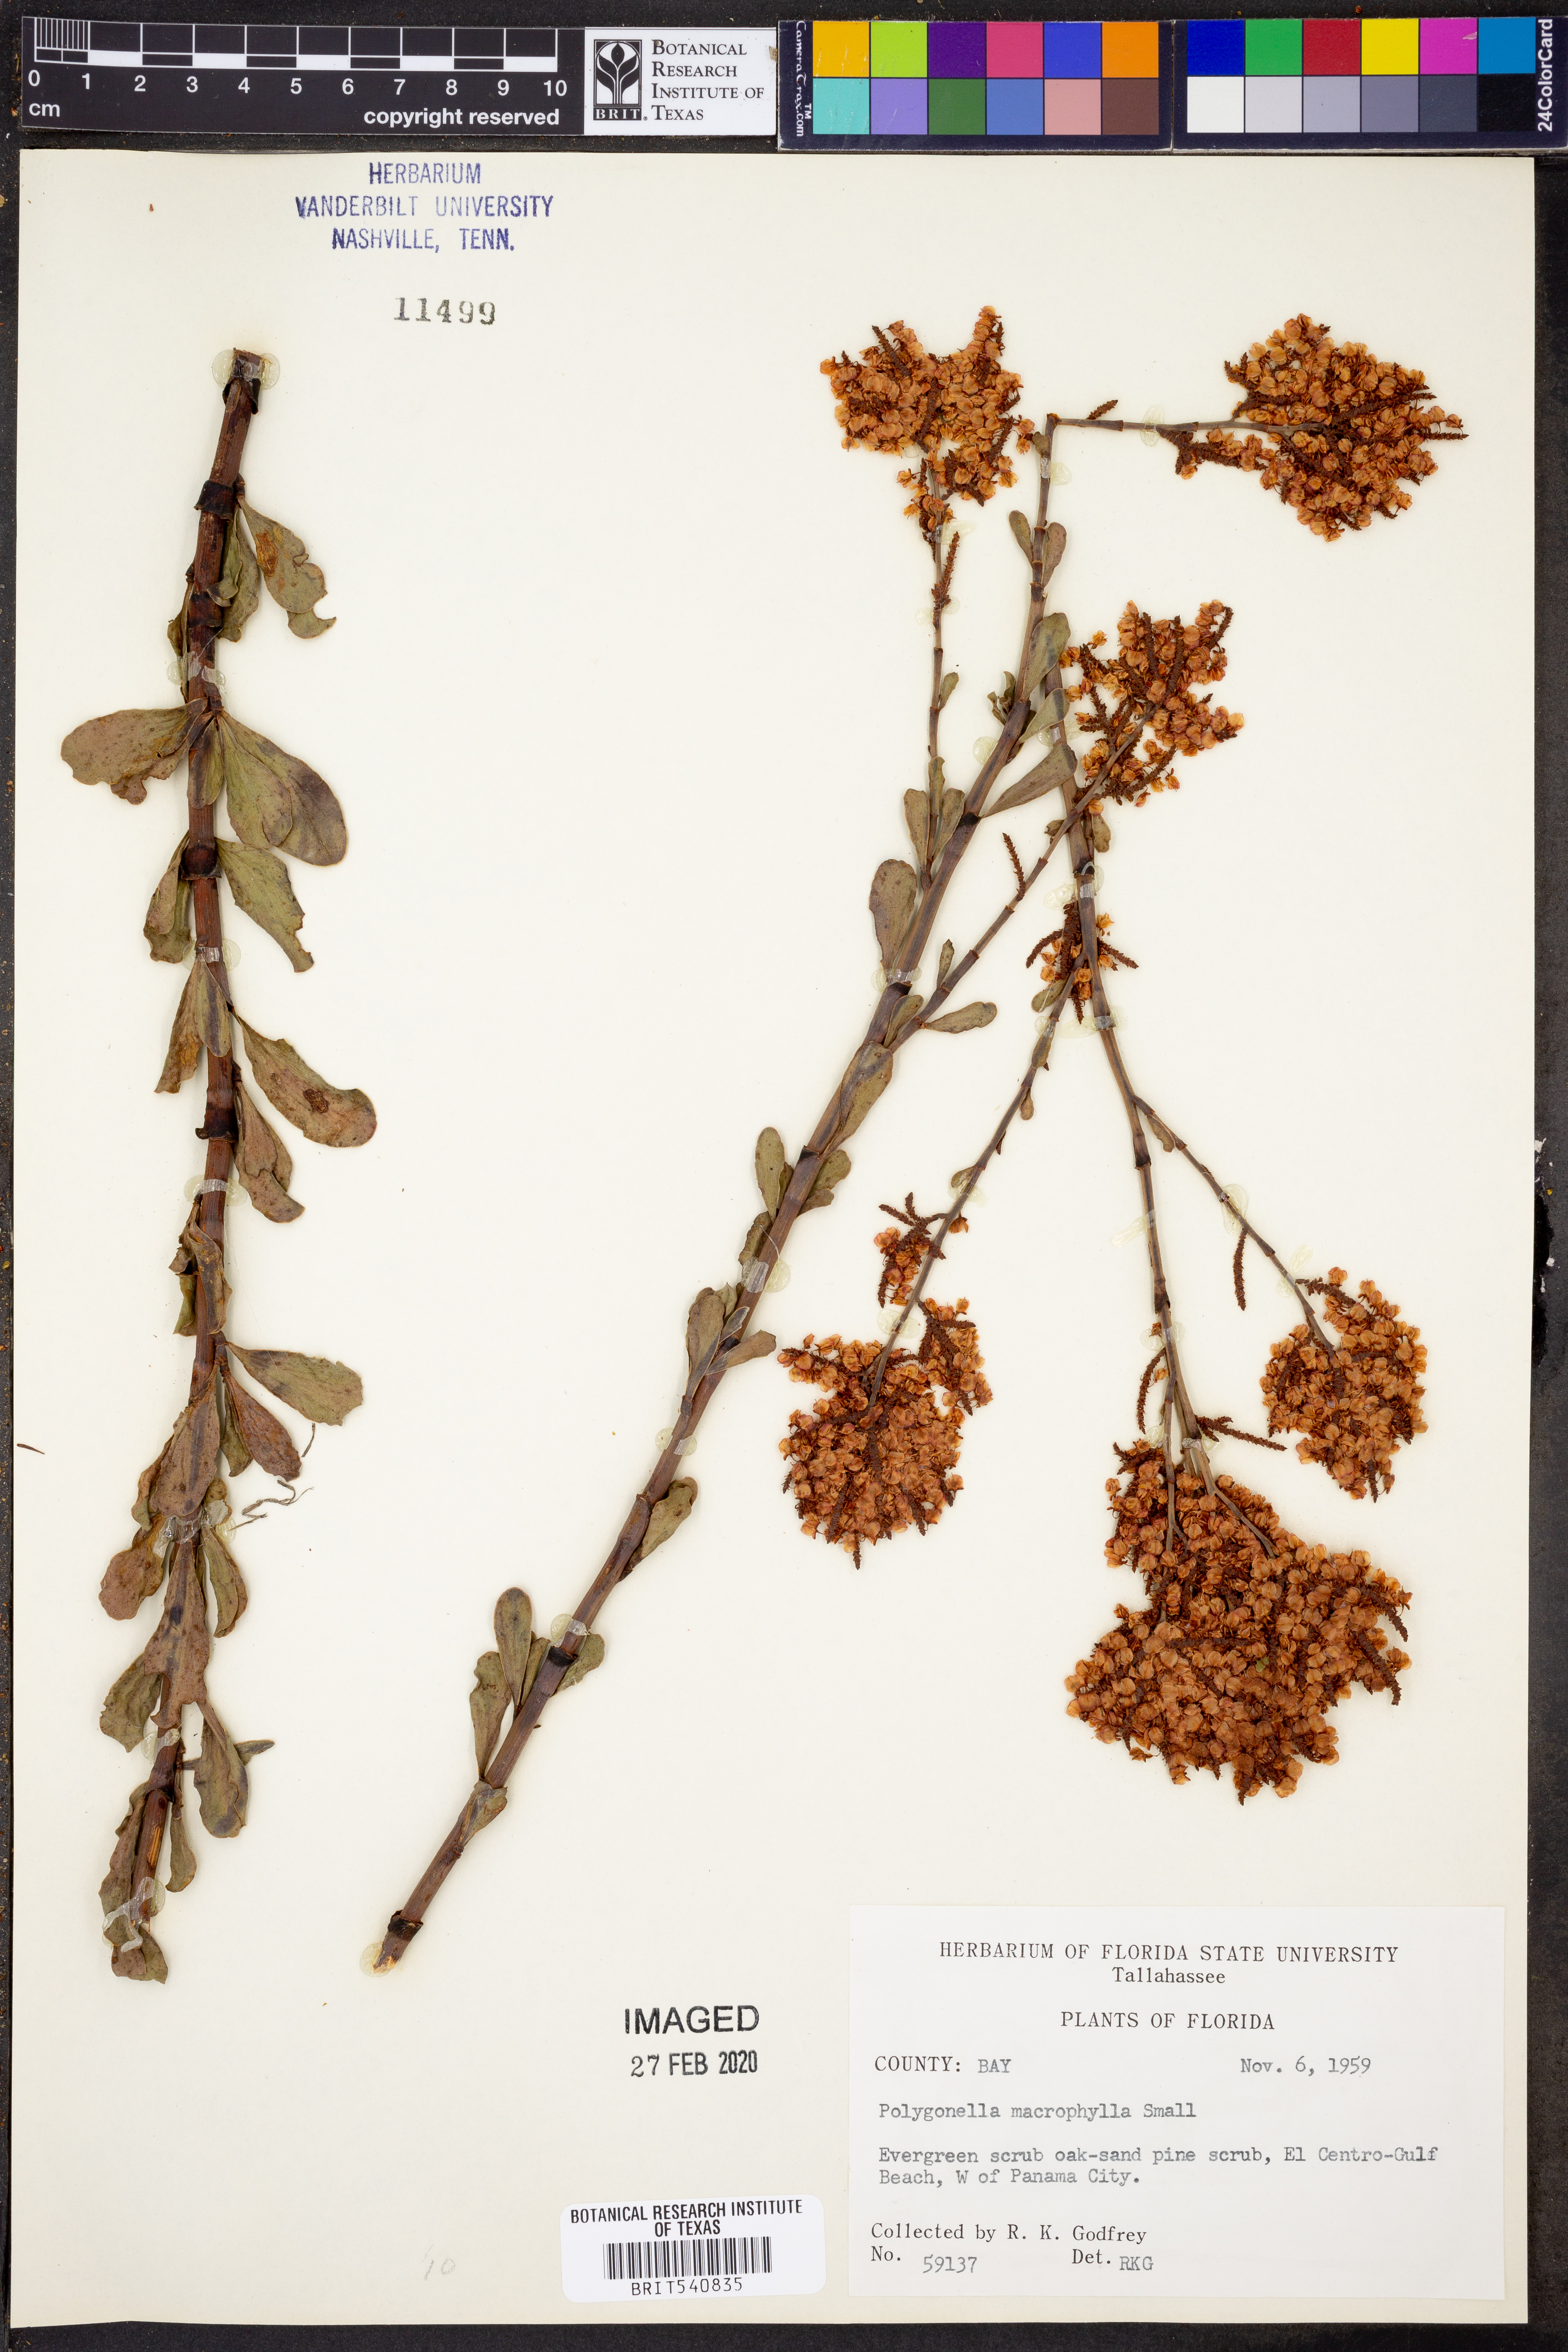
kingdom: Plantae
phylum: Tracheophyta
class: Magnoliopsida
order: Caryophyllales
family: Polygonaceae
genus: Polygonella
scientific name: Polygonella macrophylla
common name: Large-leaf wireweed
